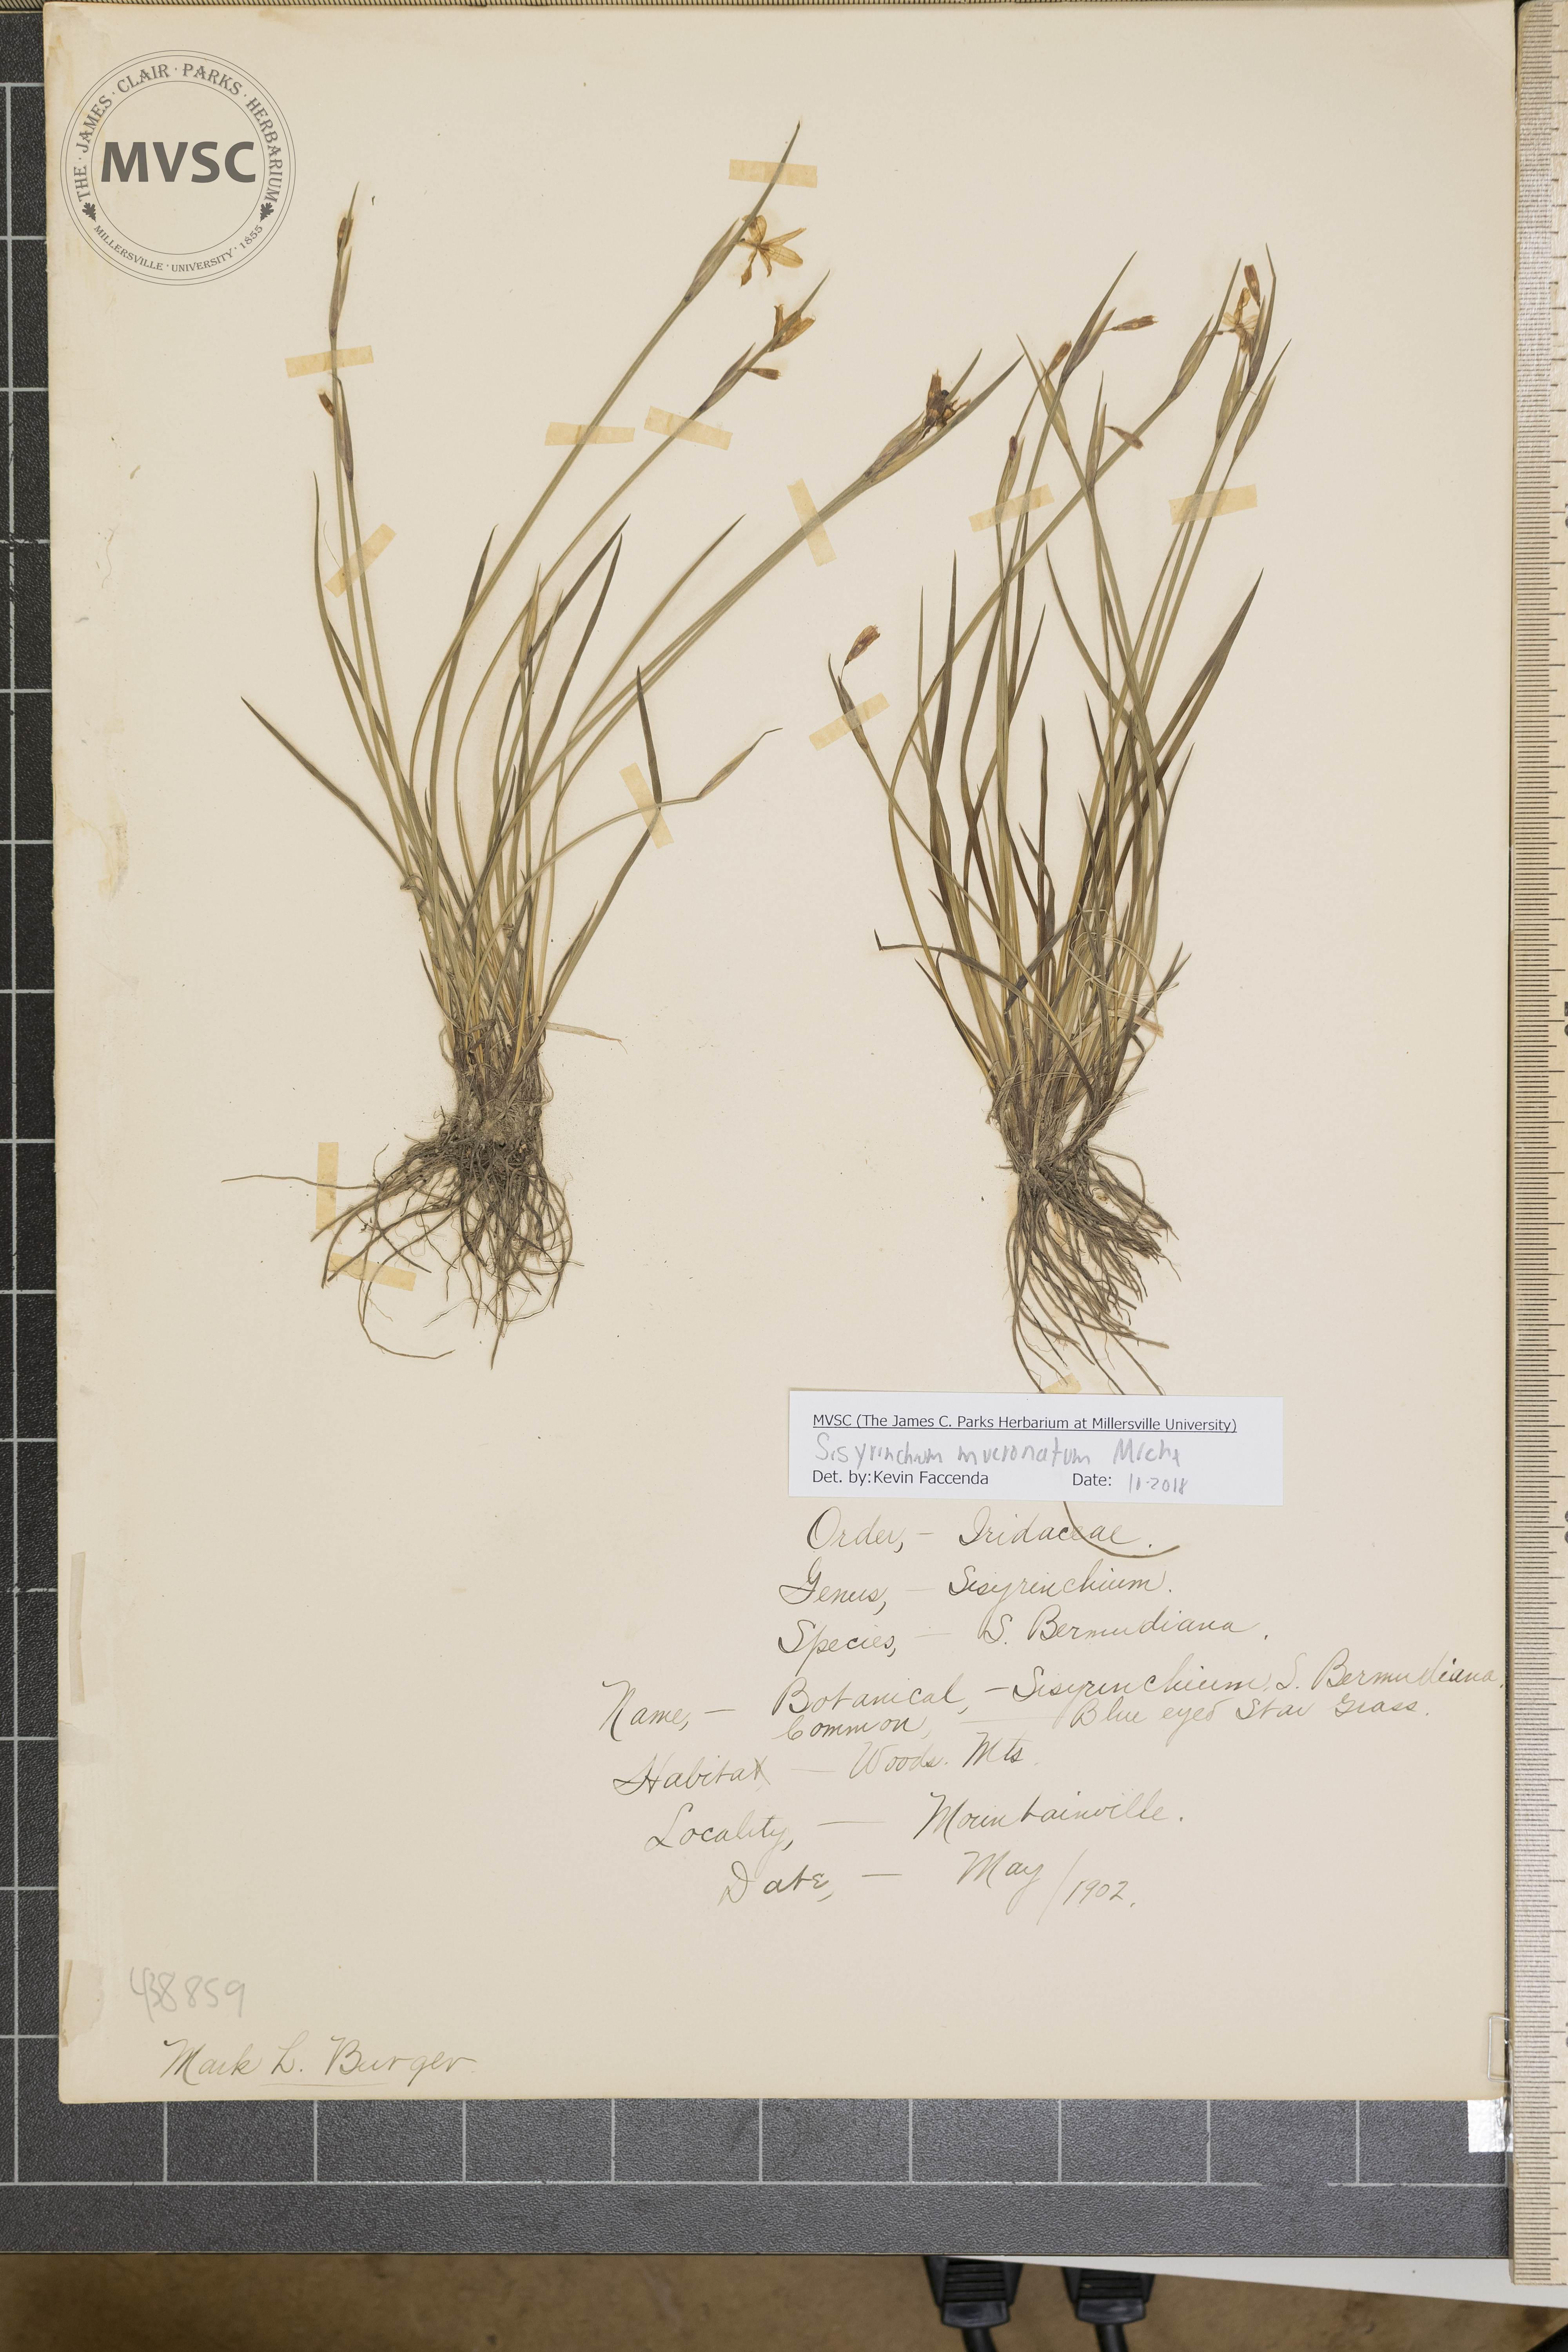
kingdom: Plantae
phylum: Tracheophyta
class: Liliopsida
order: Asparagales
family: Iridaceae
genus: Sisyrinchium
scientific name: Sisyrinchium mucronatum
